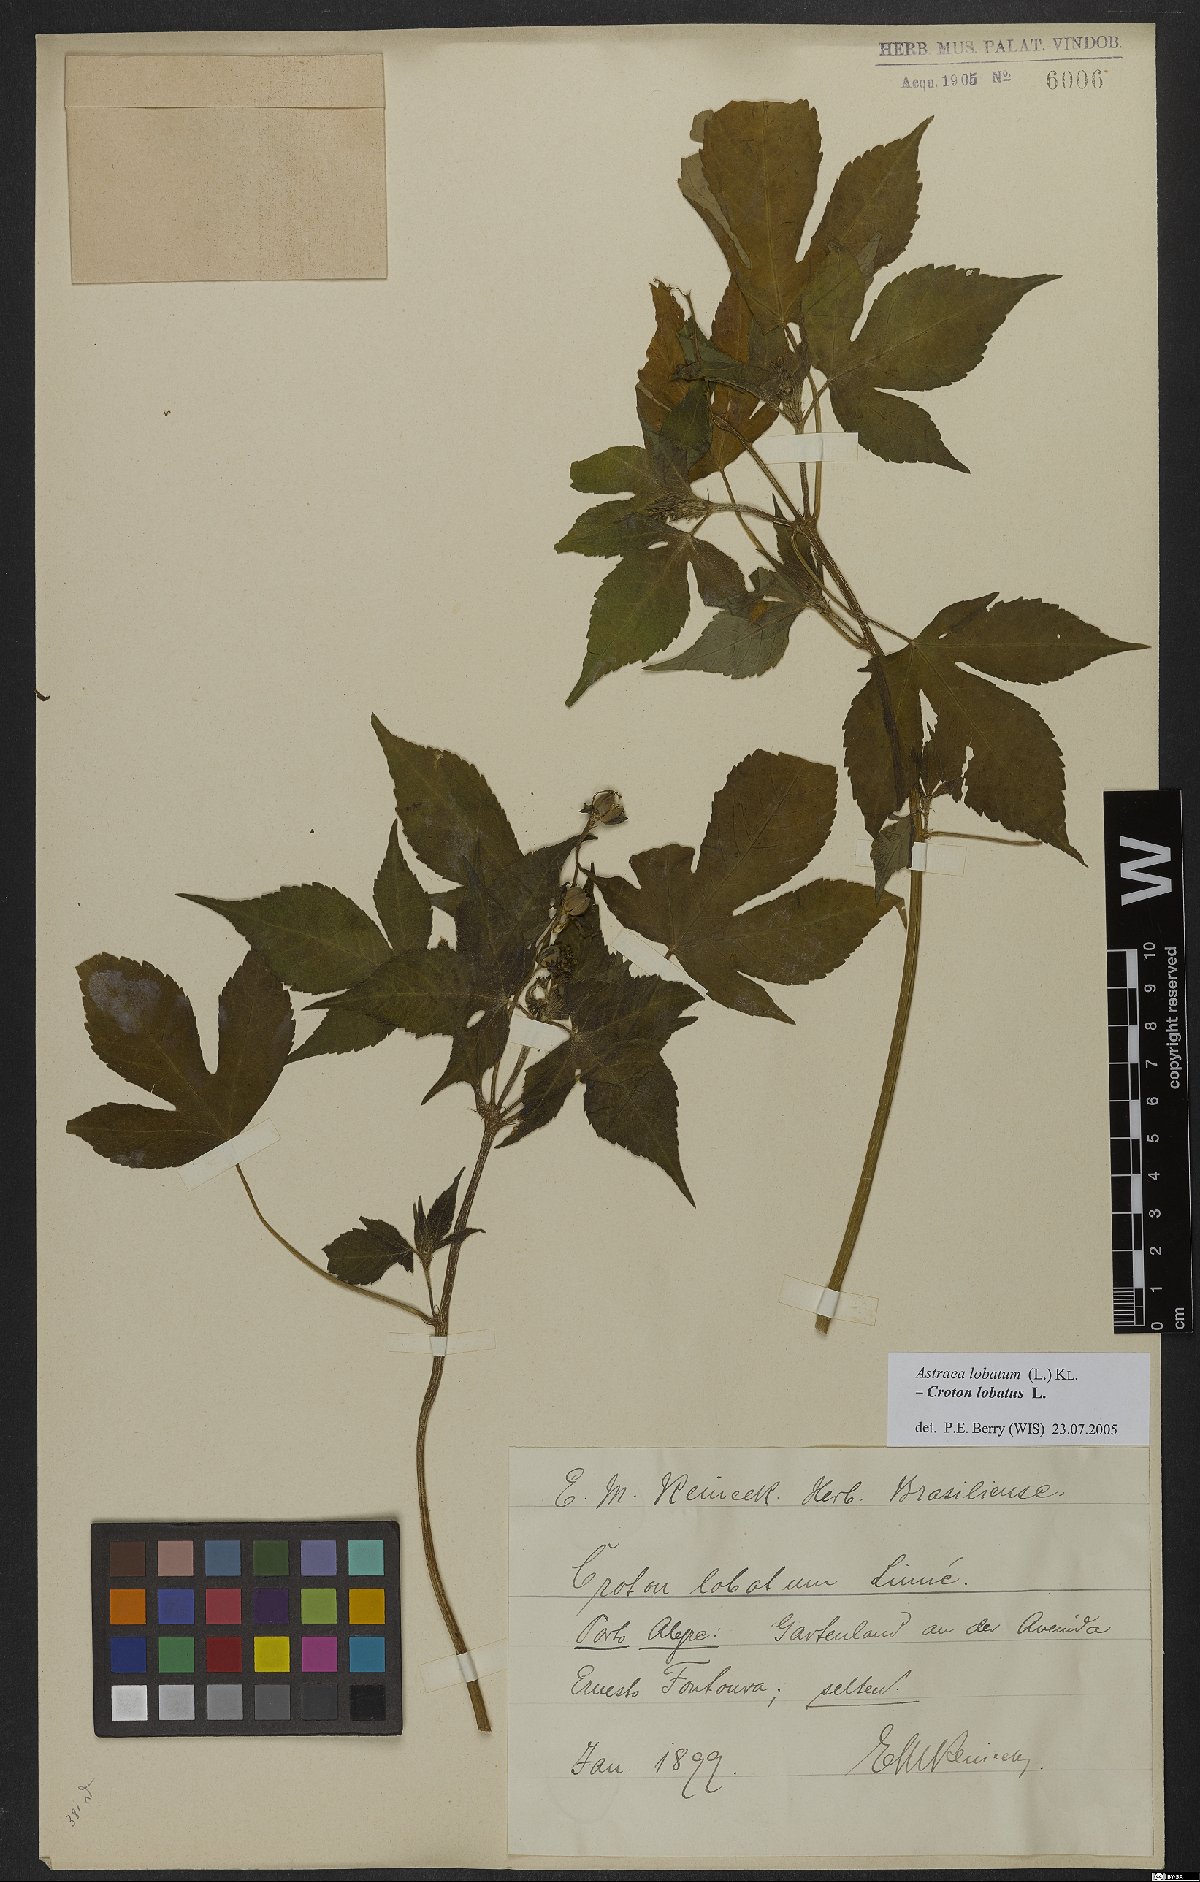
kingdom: Plantae
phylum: Tracheophyta
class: Magnoliopsida
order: Malpighiales
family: Euphorbiaceae
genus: Croton
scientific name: Croton lobatus
